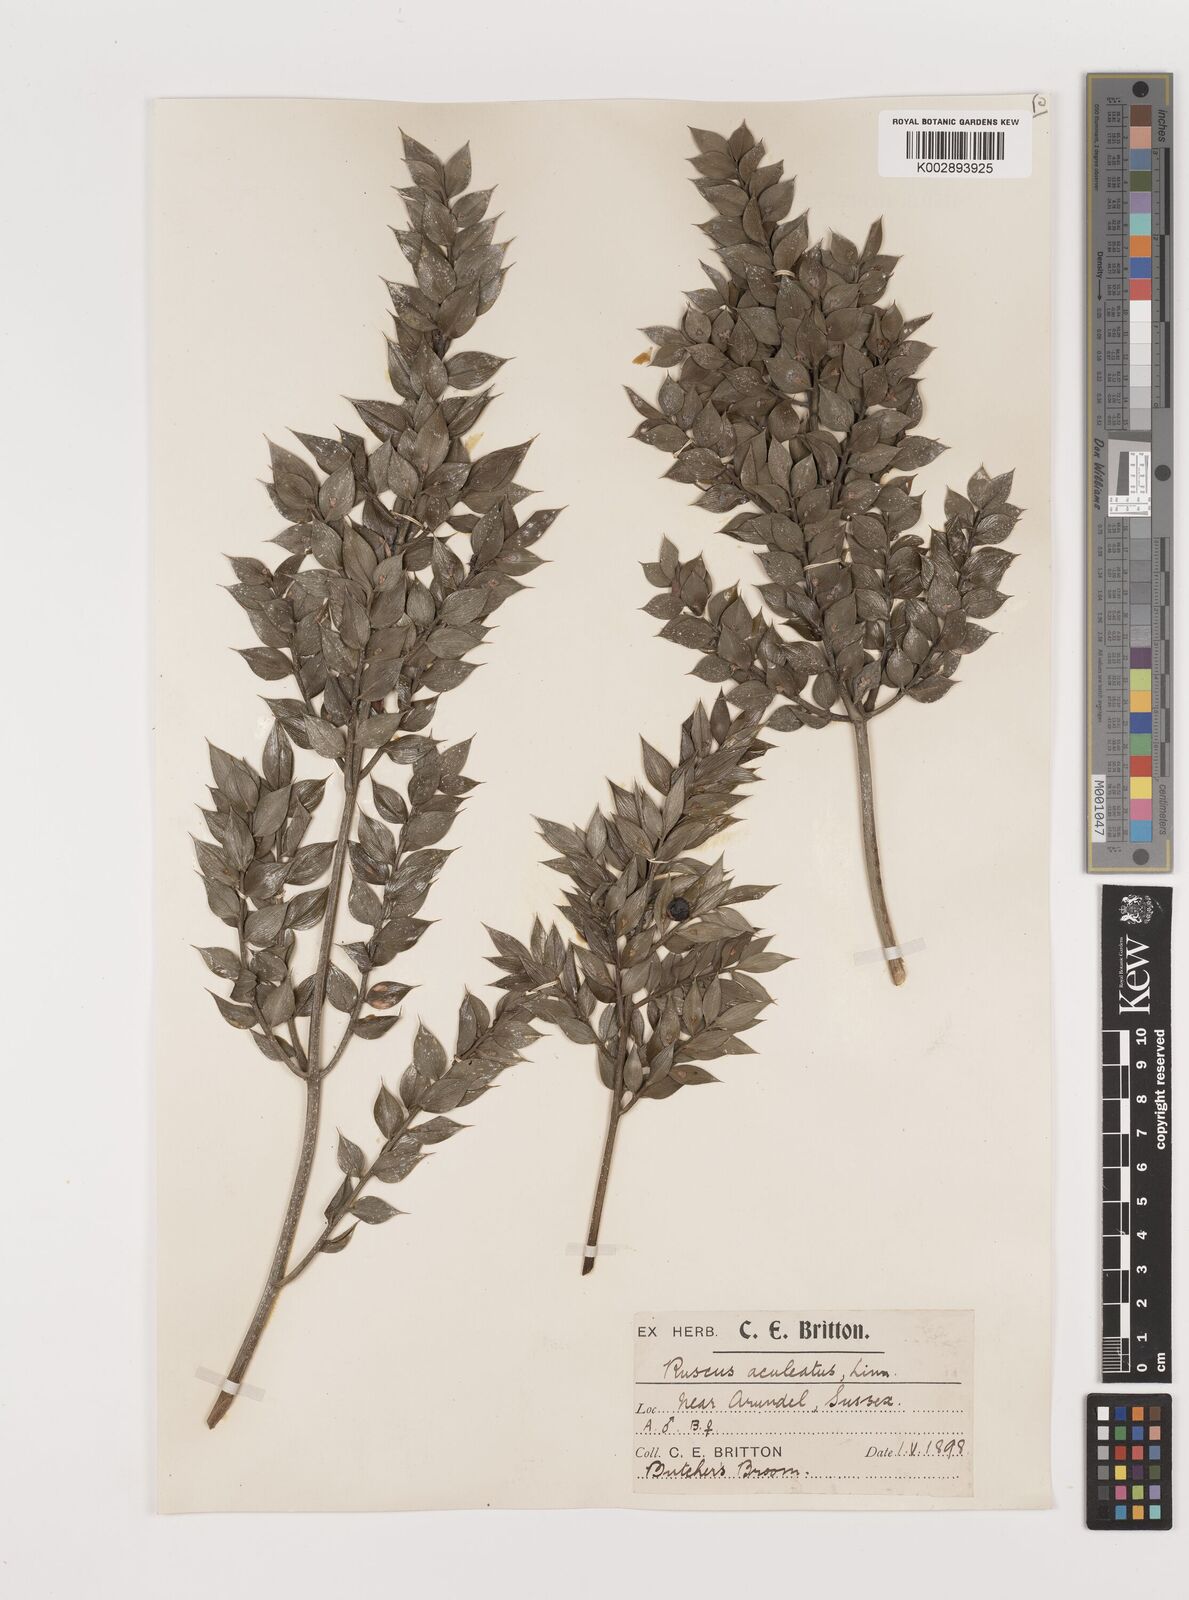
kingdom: Plantae
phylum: Tracheophyta
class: Liliopsida
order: Asparagales
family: Asparagaceae
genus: Ruscus
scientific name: Ruscus aculeatus
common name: Butcher's-broom
